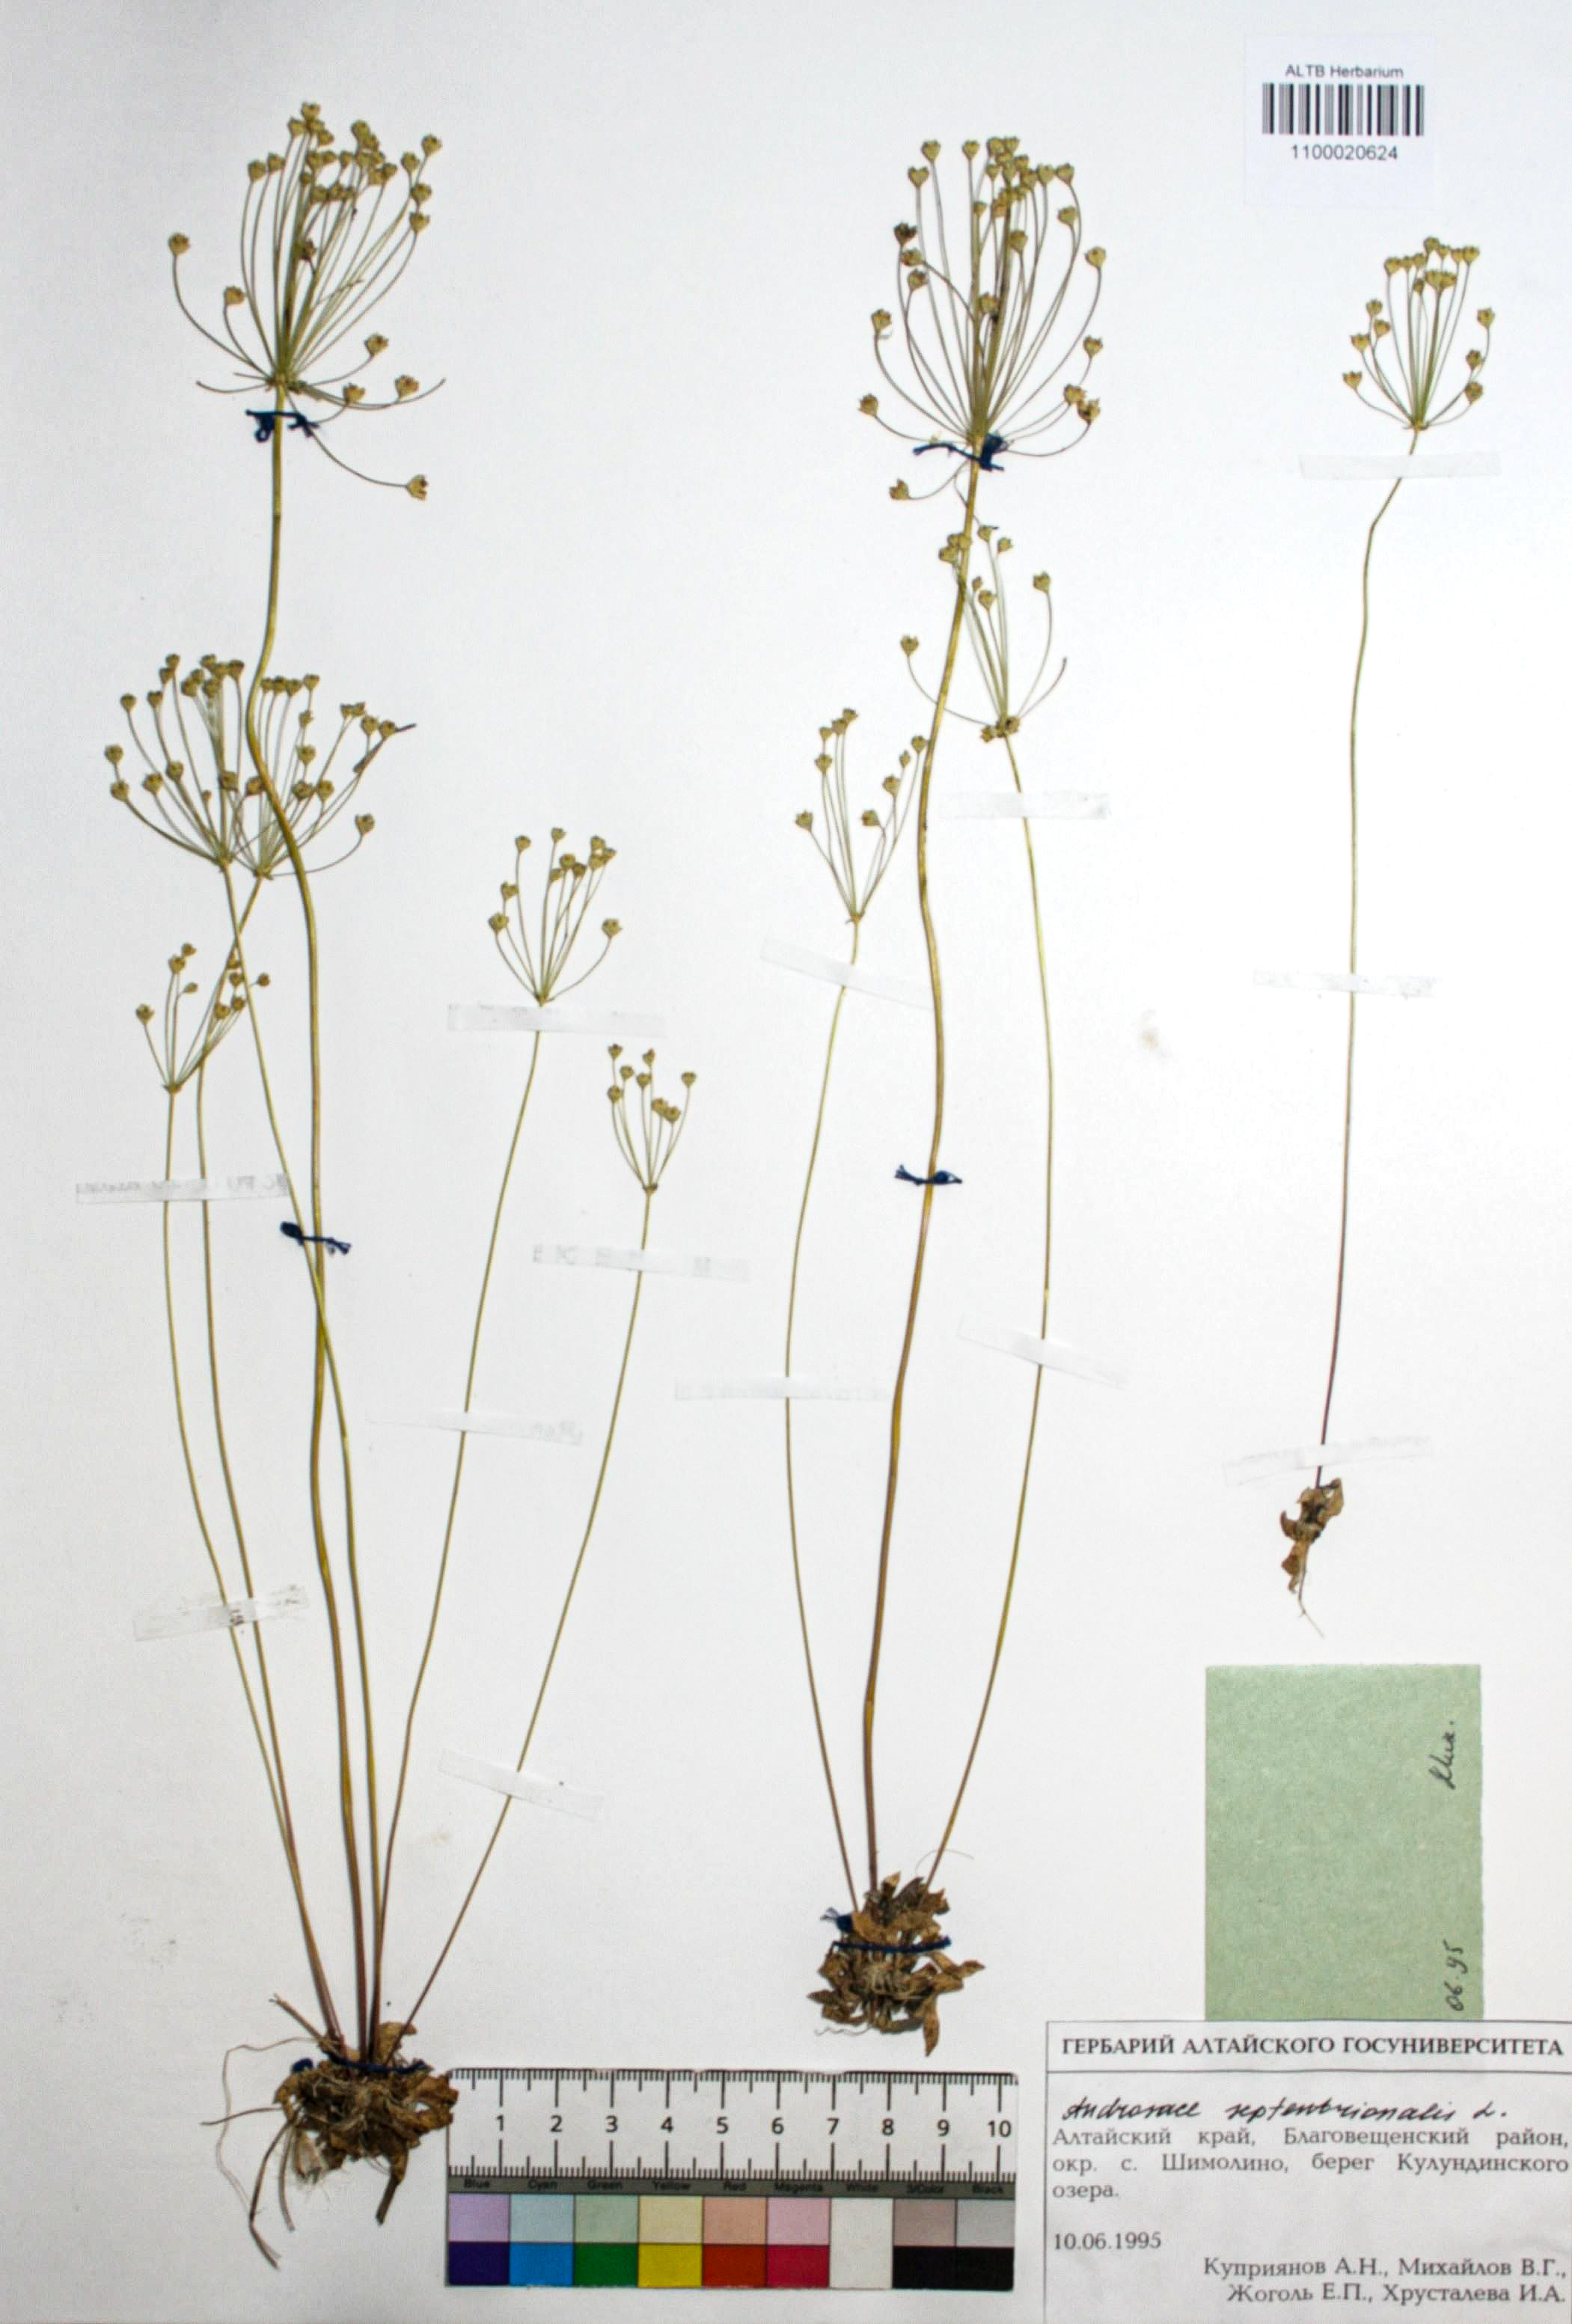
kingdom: Plantae
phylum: Tracheophyta
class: Magnoliopsida
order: Ericales
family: Primulaceae
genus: Androsace
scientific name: Androsace septentrionalis
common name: Hairy northern fairy-candelabra
